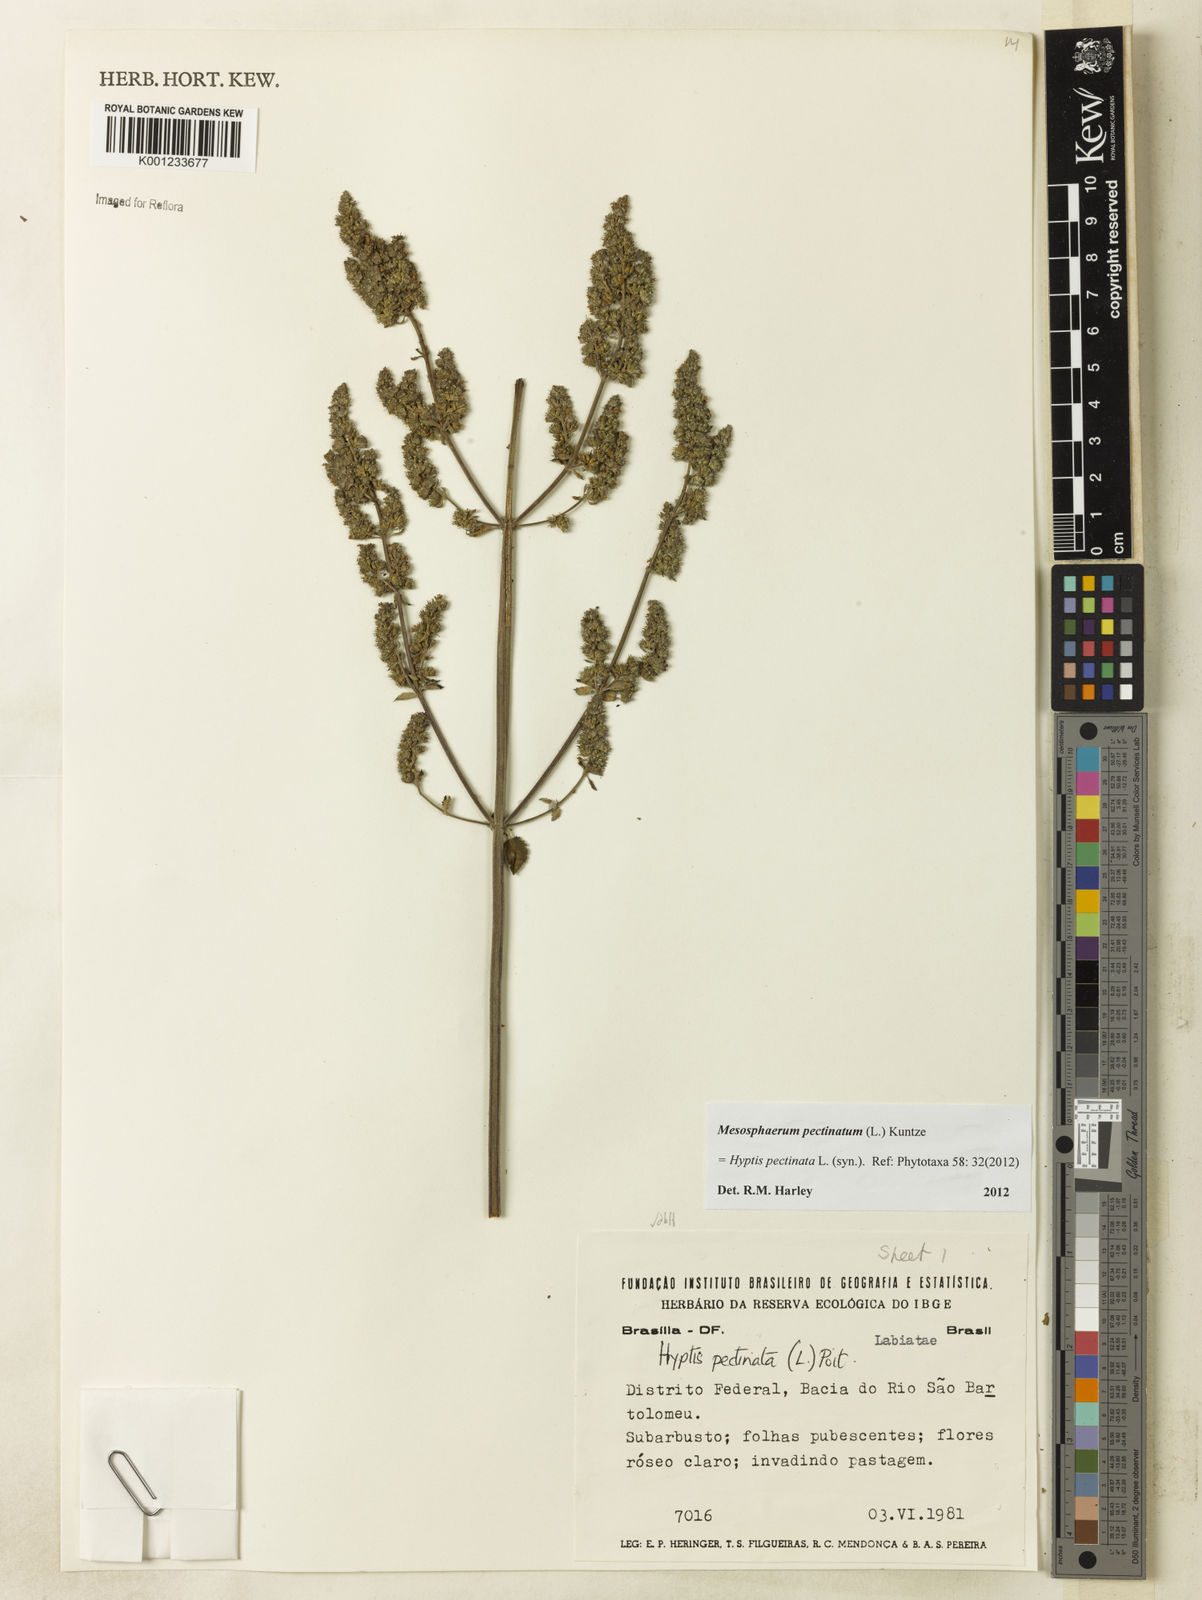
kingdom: Plantae
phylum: Tracheophyta
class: Magnoliopsida
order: Lamiales
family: Lamiaceae
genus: Mesosphaerum
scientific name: Mesosphaerum pectinatum
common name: Comb hyptis
